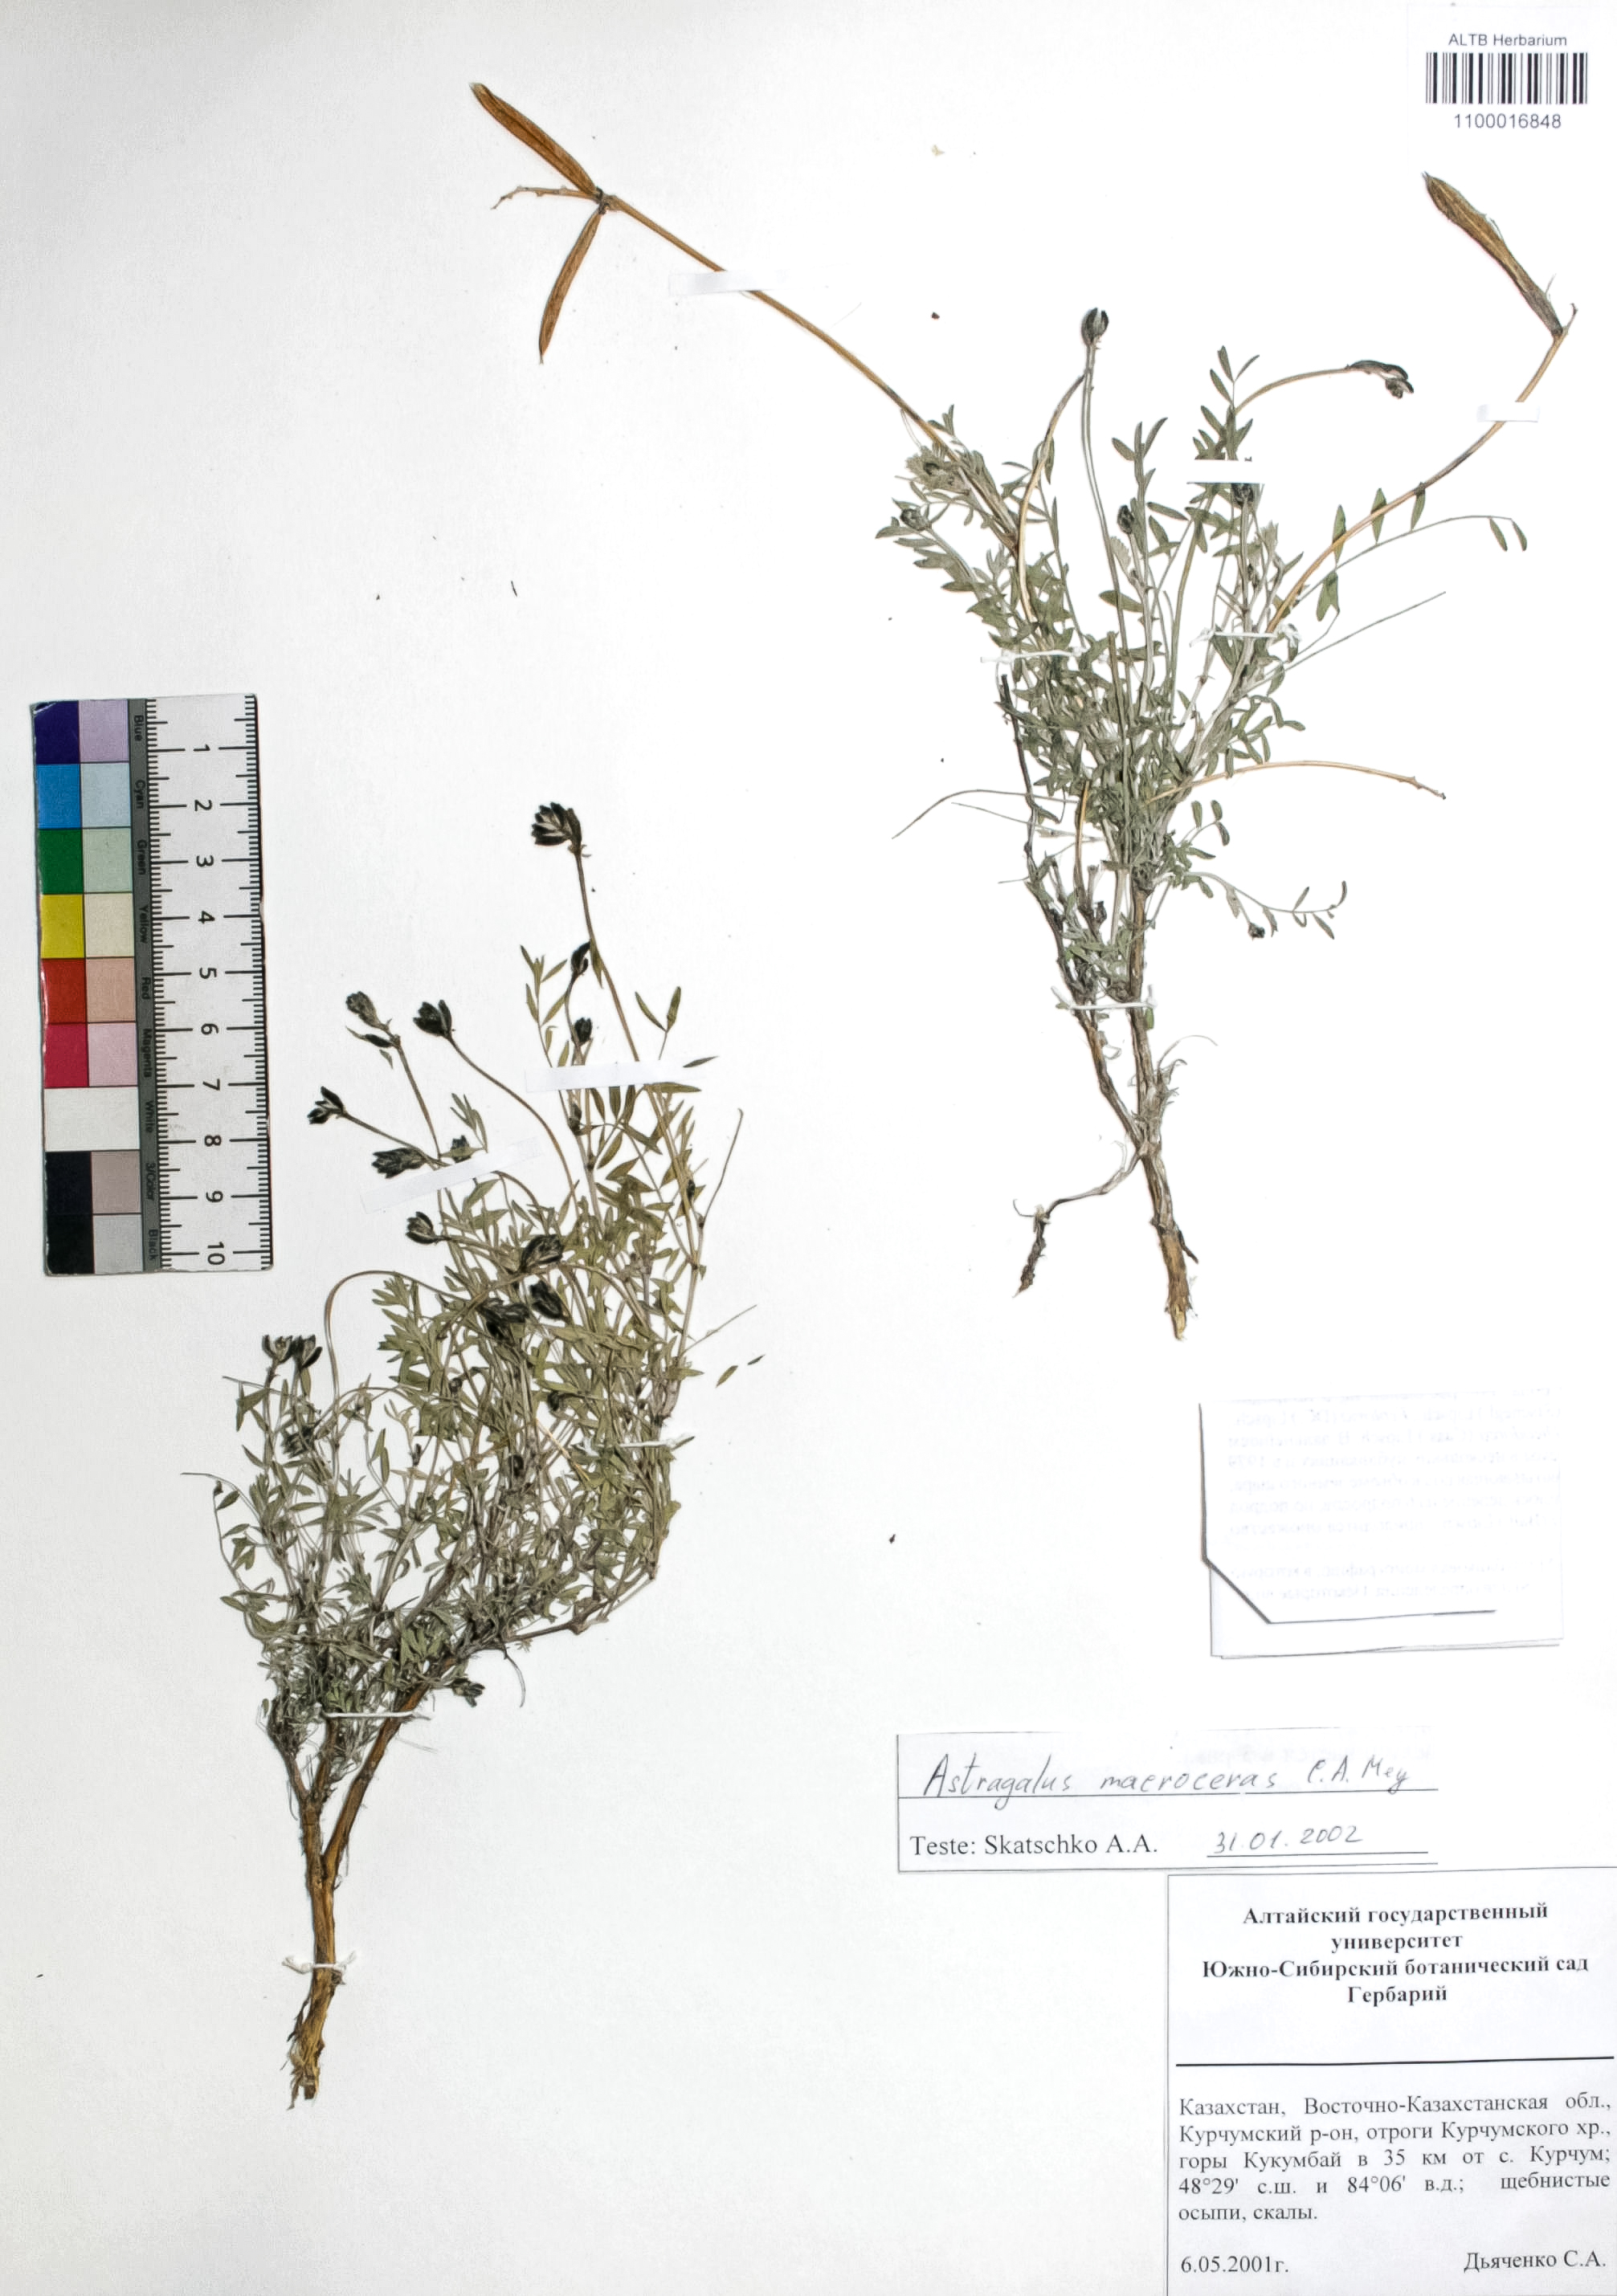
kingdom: Plantae
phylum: Tracheophyta
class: Magnoliopsida
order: Fabales
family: Fabaceae
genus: Astragalus
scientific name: Astragalus macroceras
